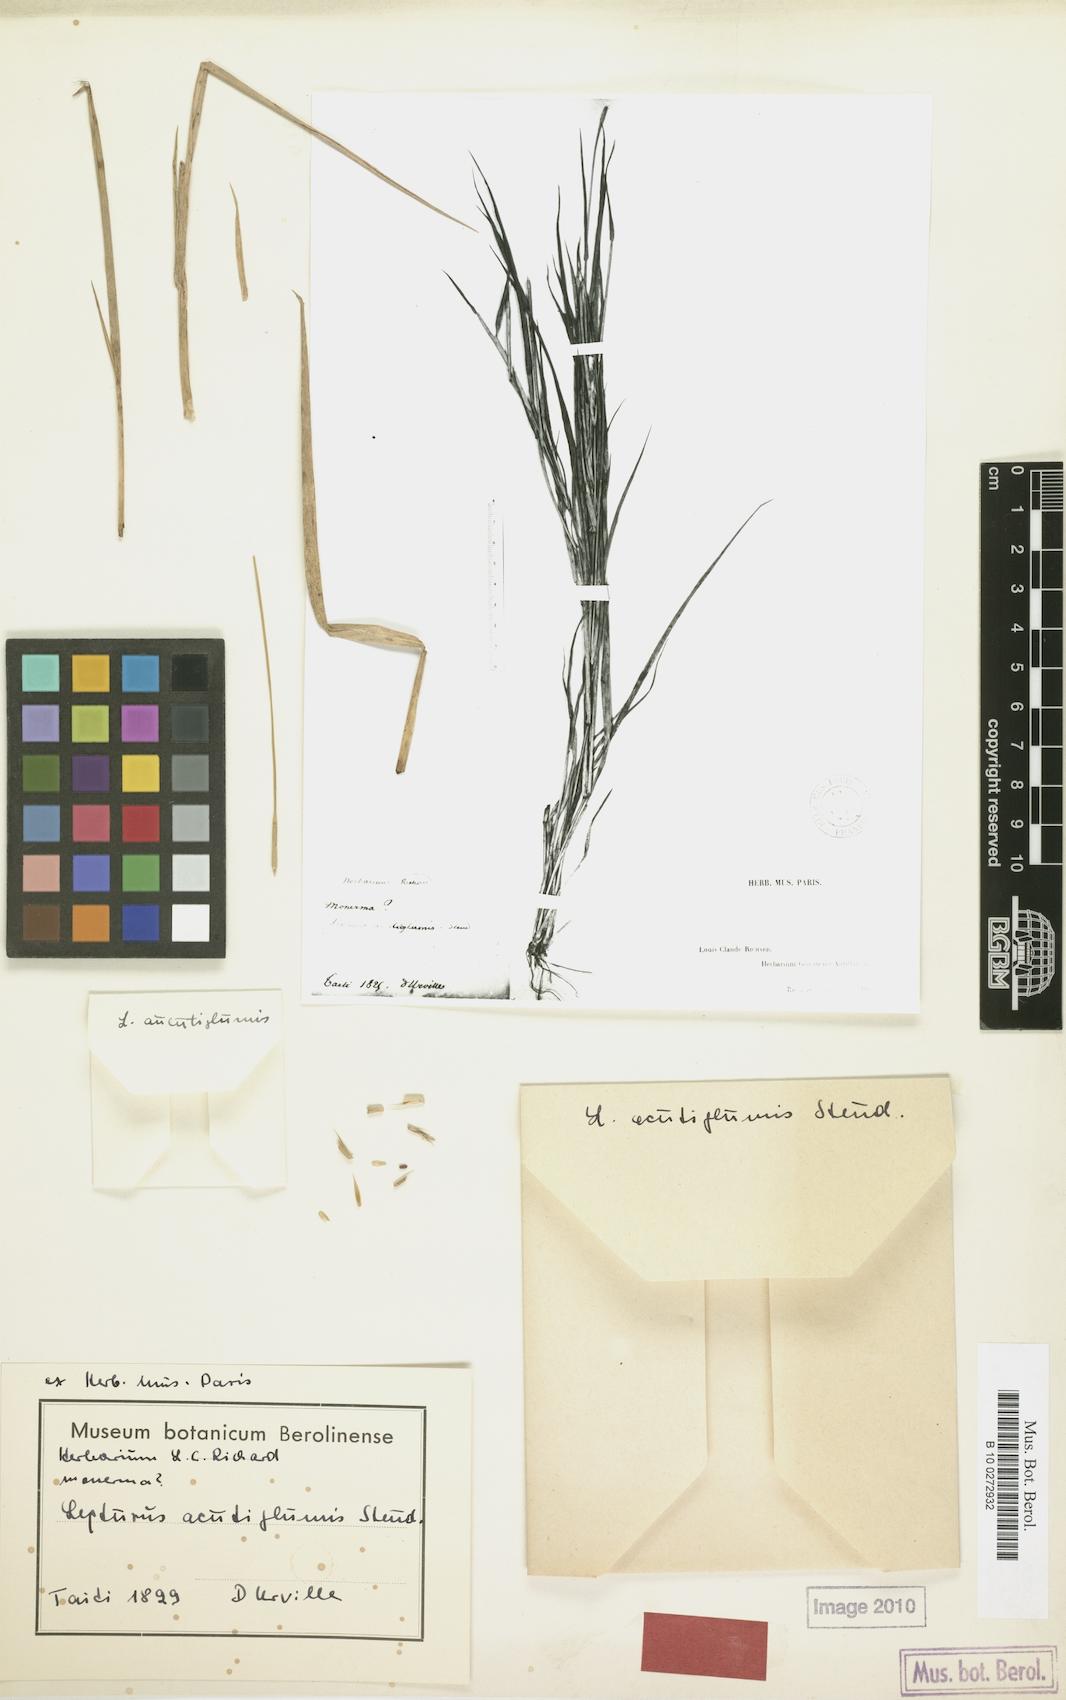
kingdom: Plantae
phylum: Tracheophyta
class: Liliopsida
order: Poales
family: Poaceae
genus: Lepturus
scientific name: Lepturus repens
